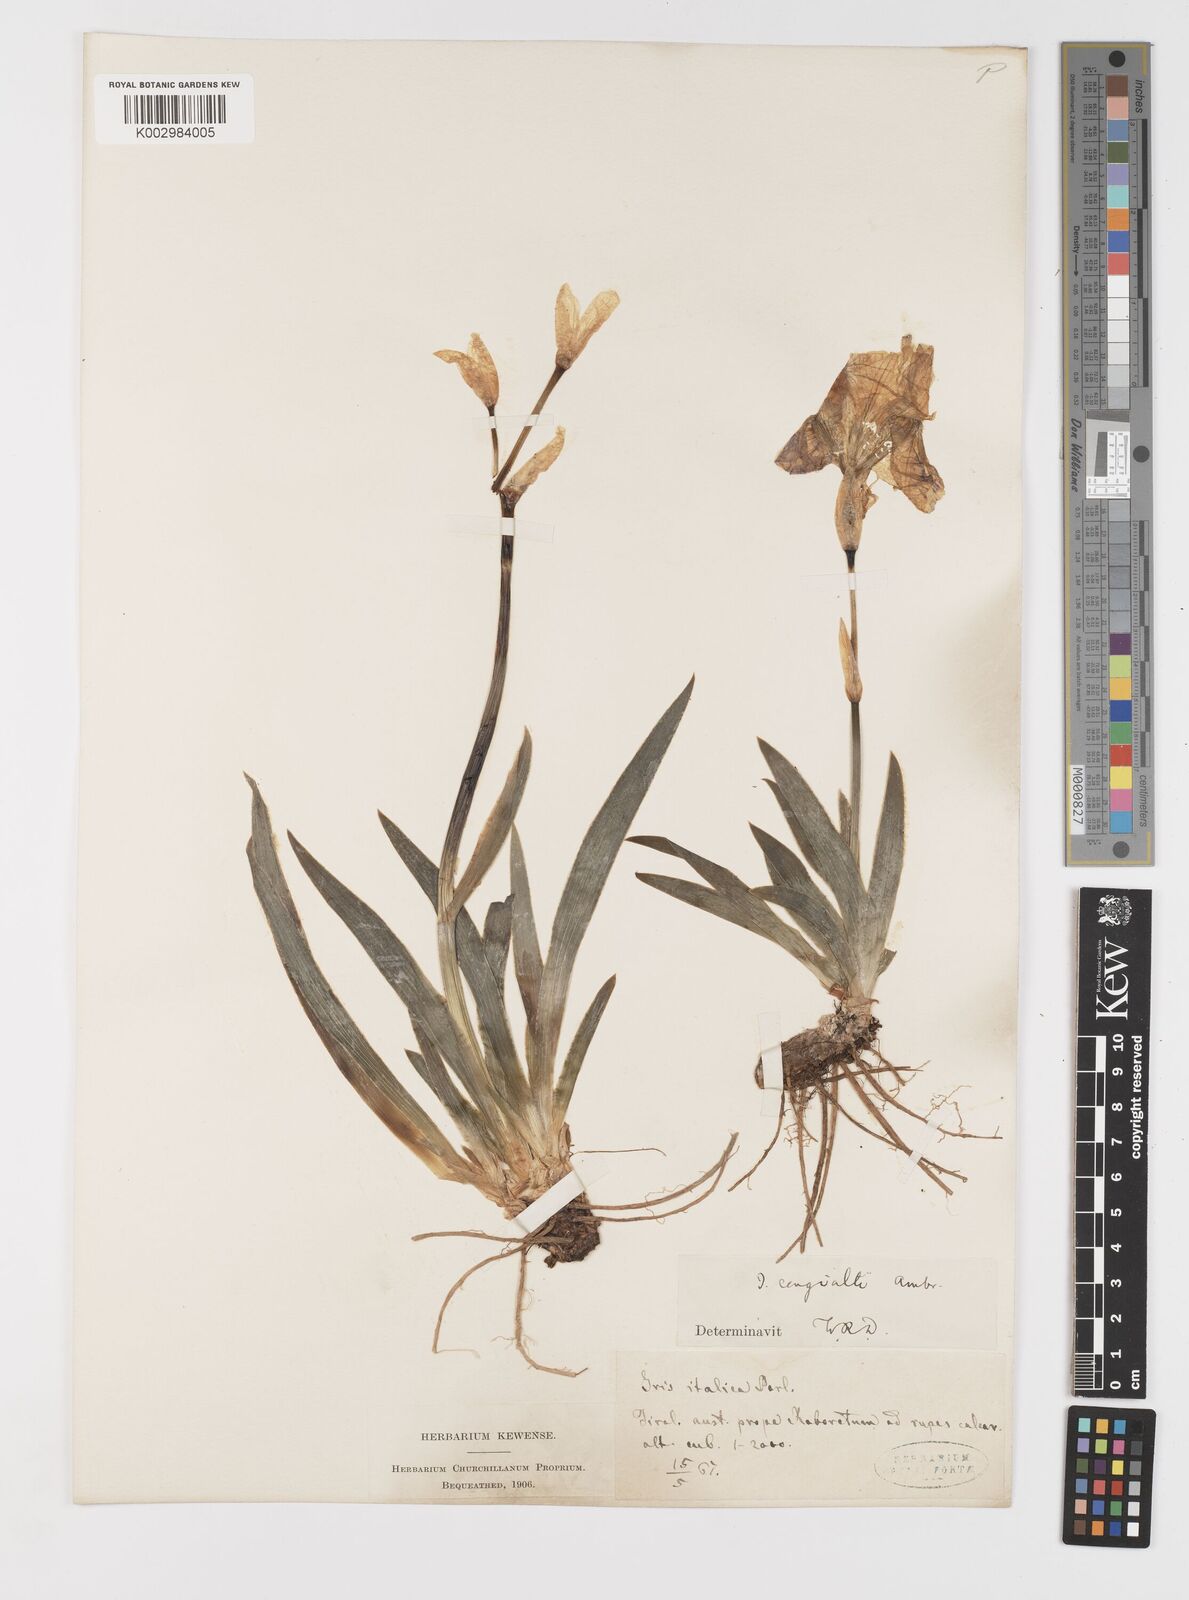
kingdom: Plantae
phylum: Tracheophyta
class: Liliopsida
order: Asparagales
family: Iridaceae
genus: Iris
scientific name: Iris pallida
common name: Sweet iris
